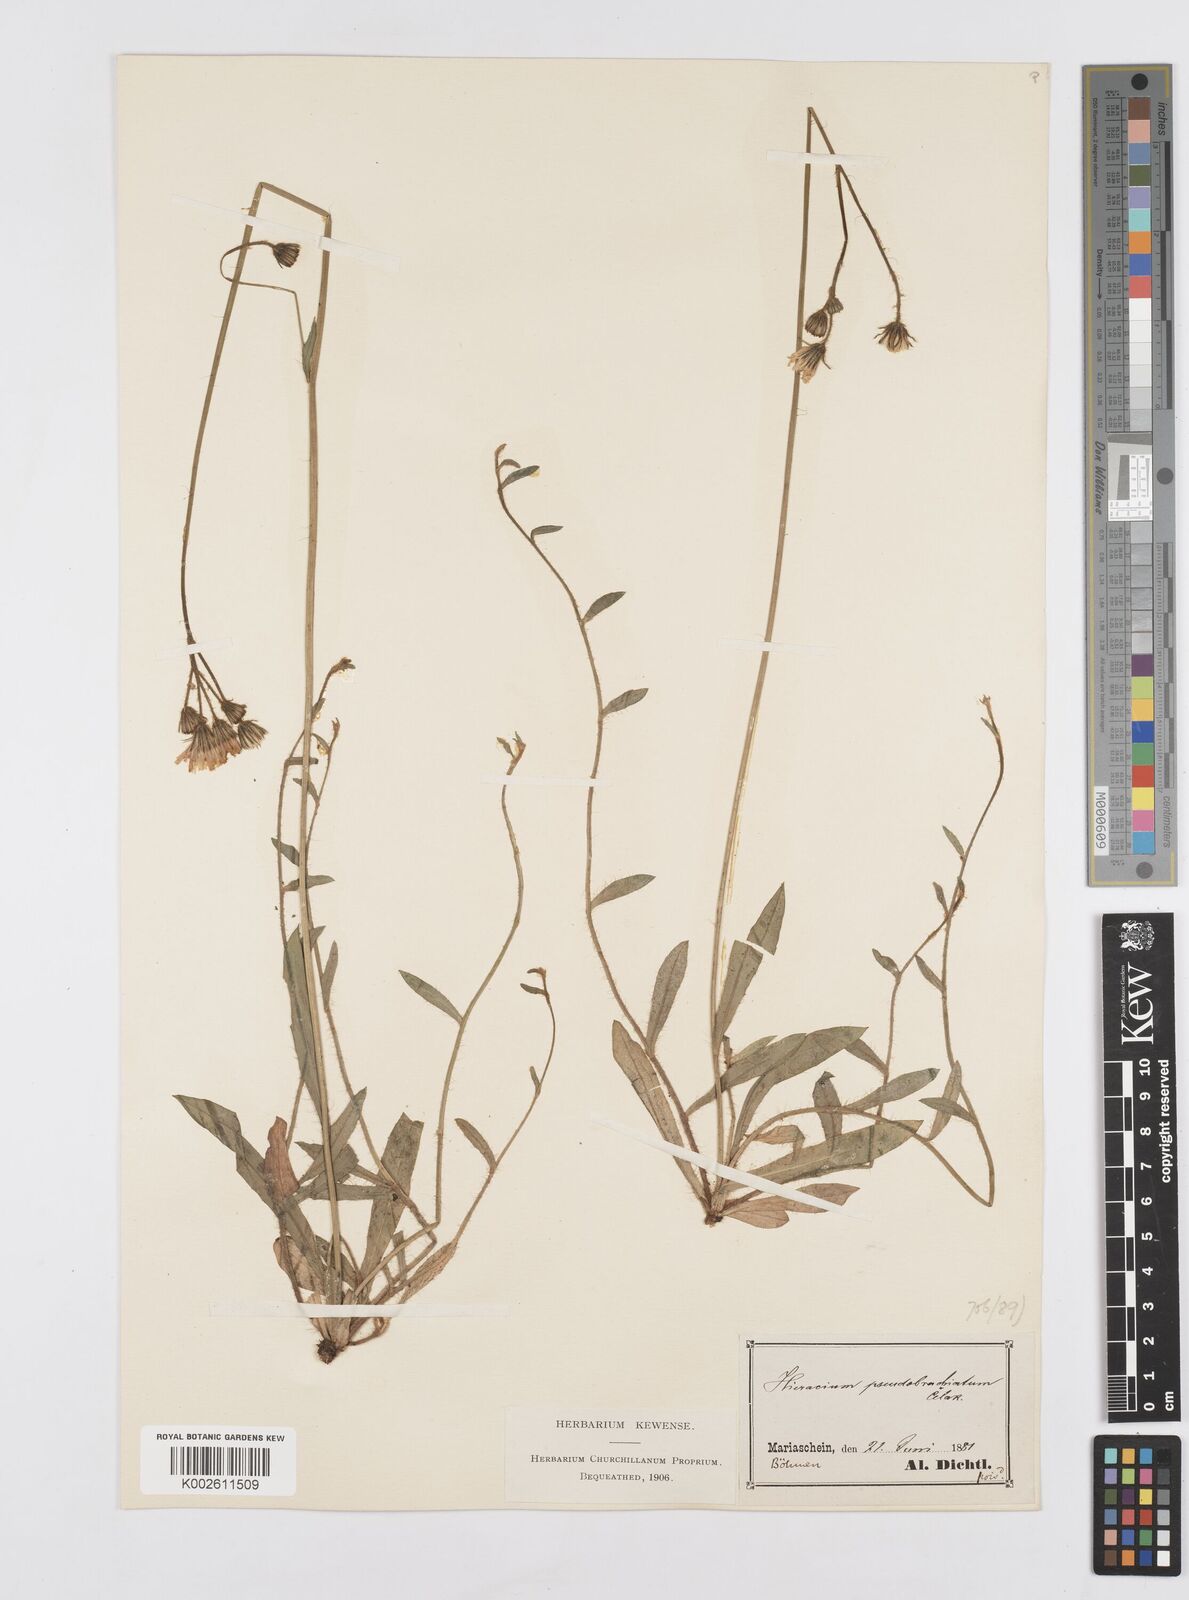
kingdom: Plantae
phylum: Tracheophyta
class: Magnoliopsida
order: Asterales
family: Asteraceae
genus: Pilosella
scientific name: Pilosella acutifolia
